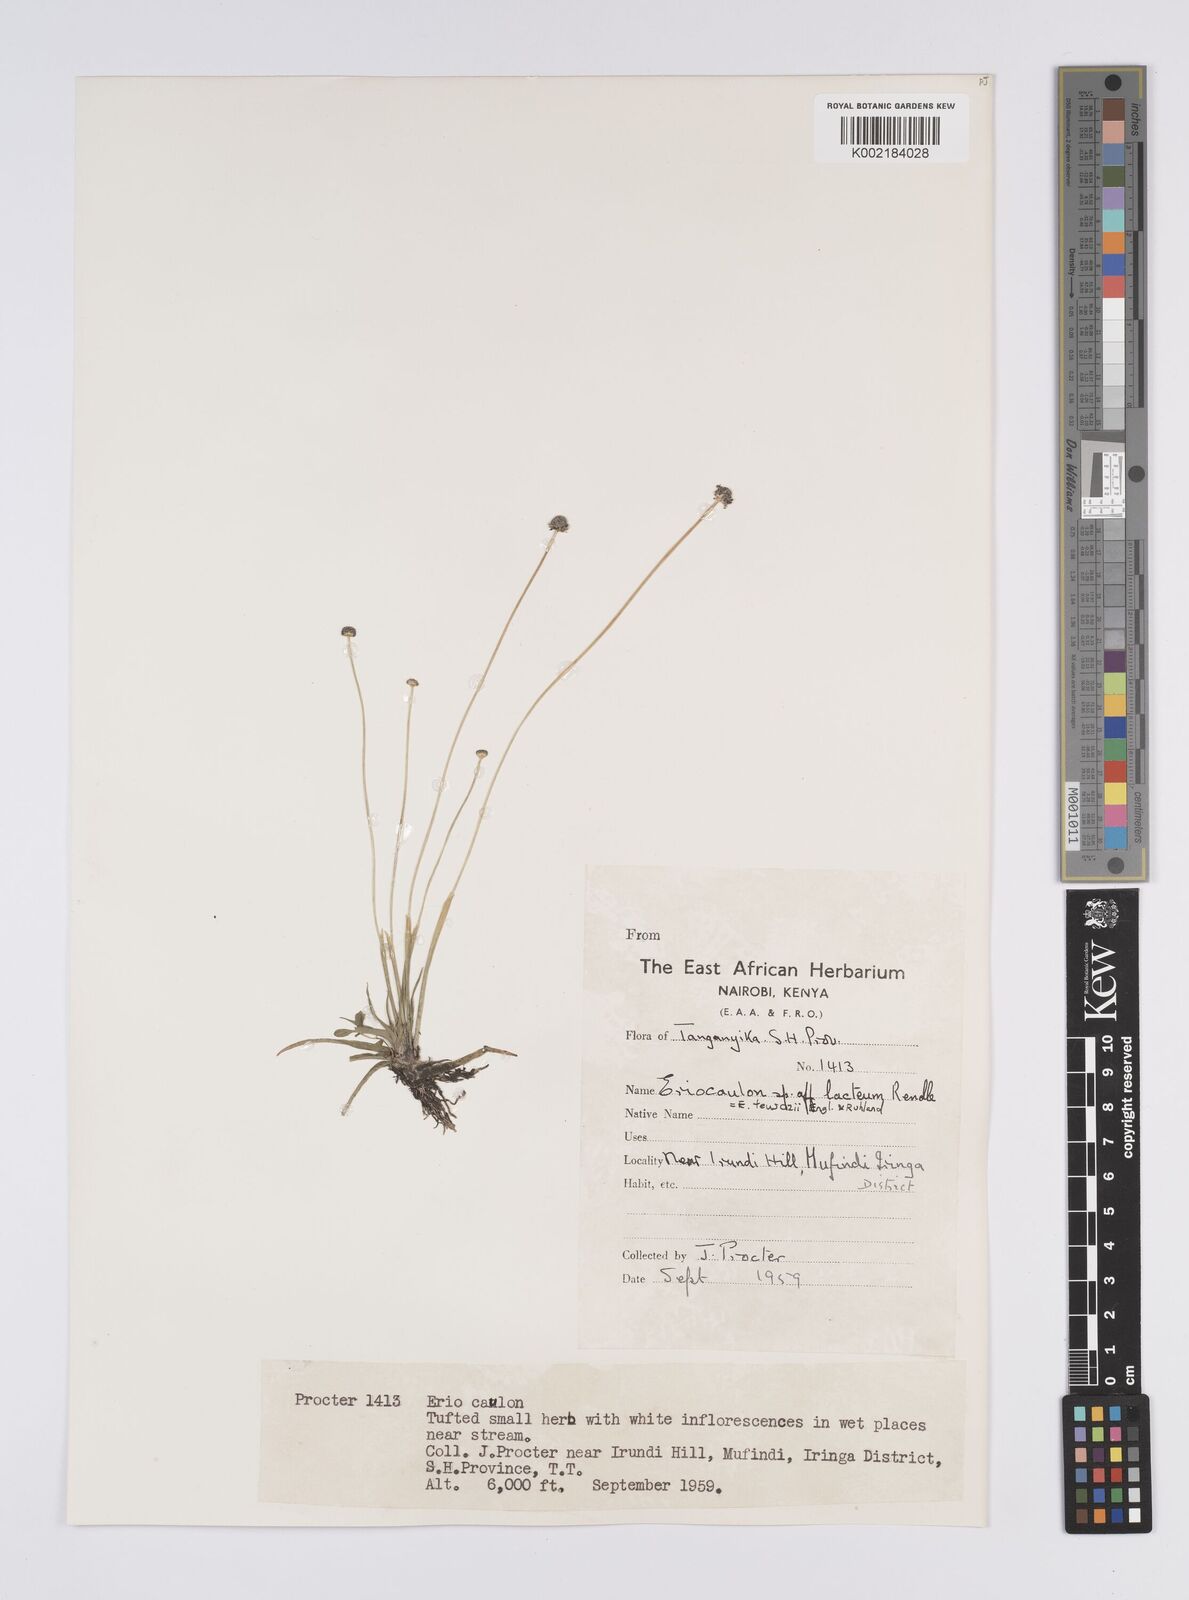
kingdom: Plantae
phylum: Tracheophyta
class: Liliopsida
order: Poales
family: Eriocaulaceae
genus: Eriocaulon
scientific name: Eriocaulon teusczii
